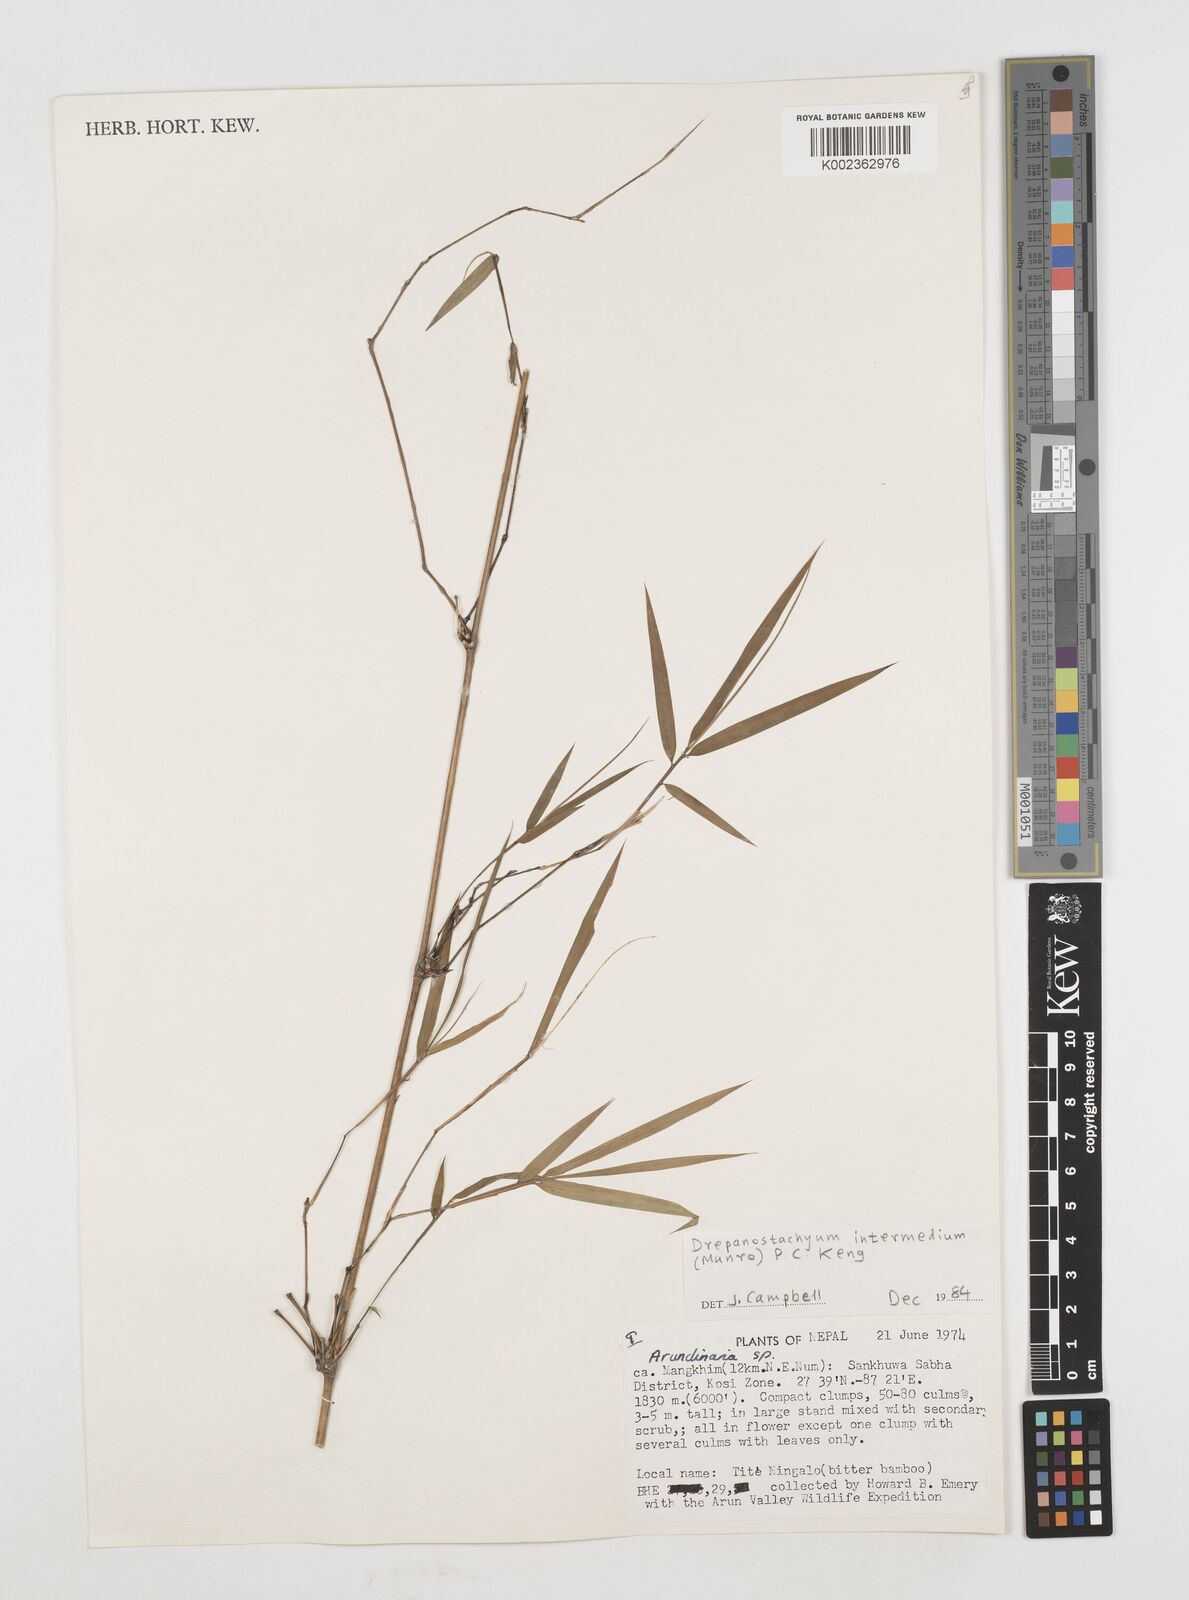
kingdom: Plantae
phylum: Tracheophyta
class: Liliopsida
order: Poales
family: Poaceae
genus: Drepanostachyum
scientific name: Drepanostachyum intermedium
